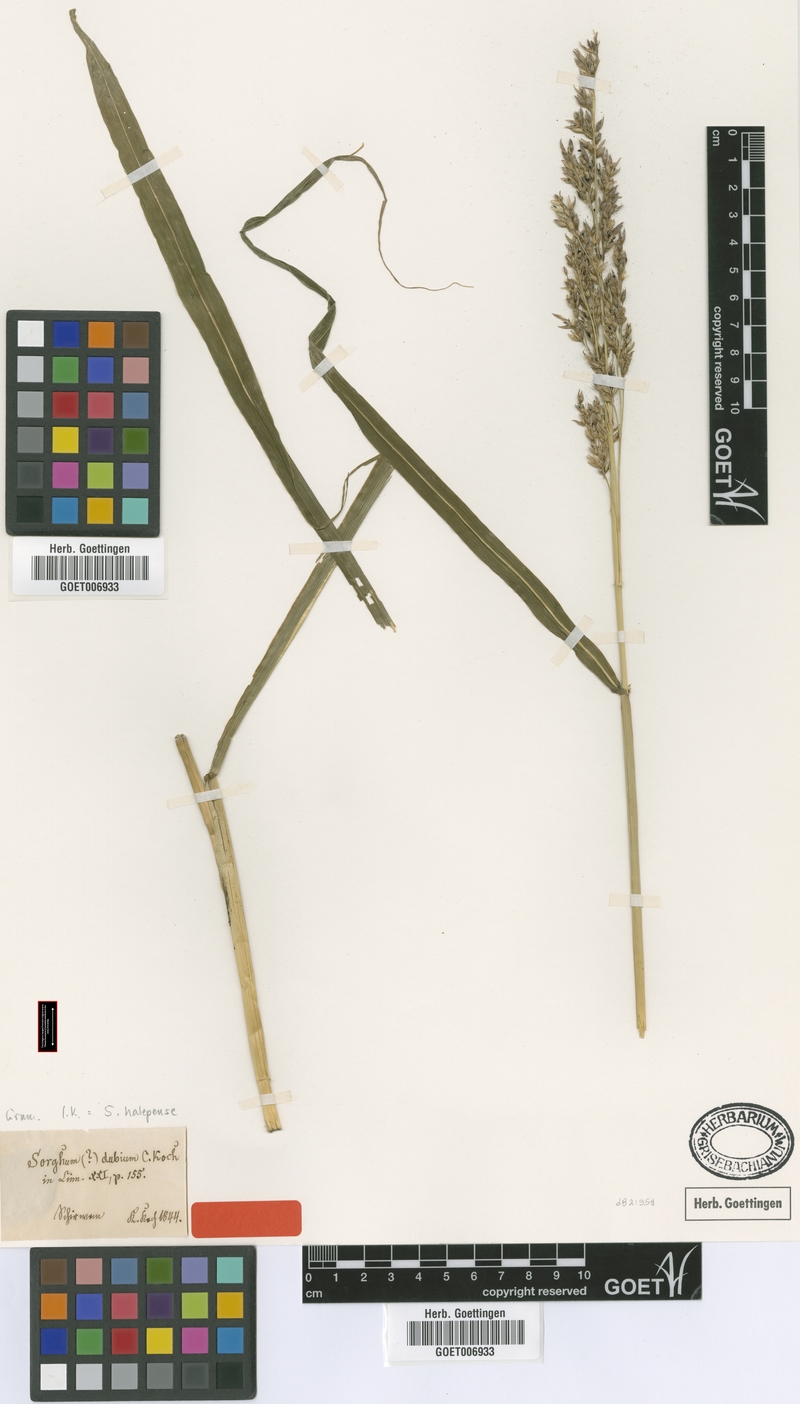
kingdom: Plantae
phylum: Tracheophyta
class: Liliopsida
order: Poales
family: Poaceae
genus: Sorghum
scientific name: Sorghum halepense
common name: Johnson-grass
